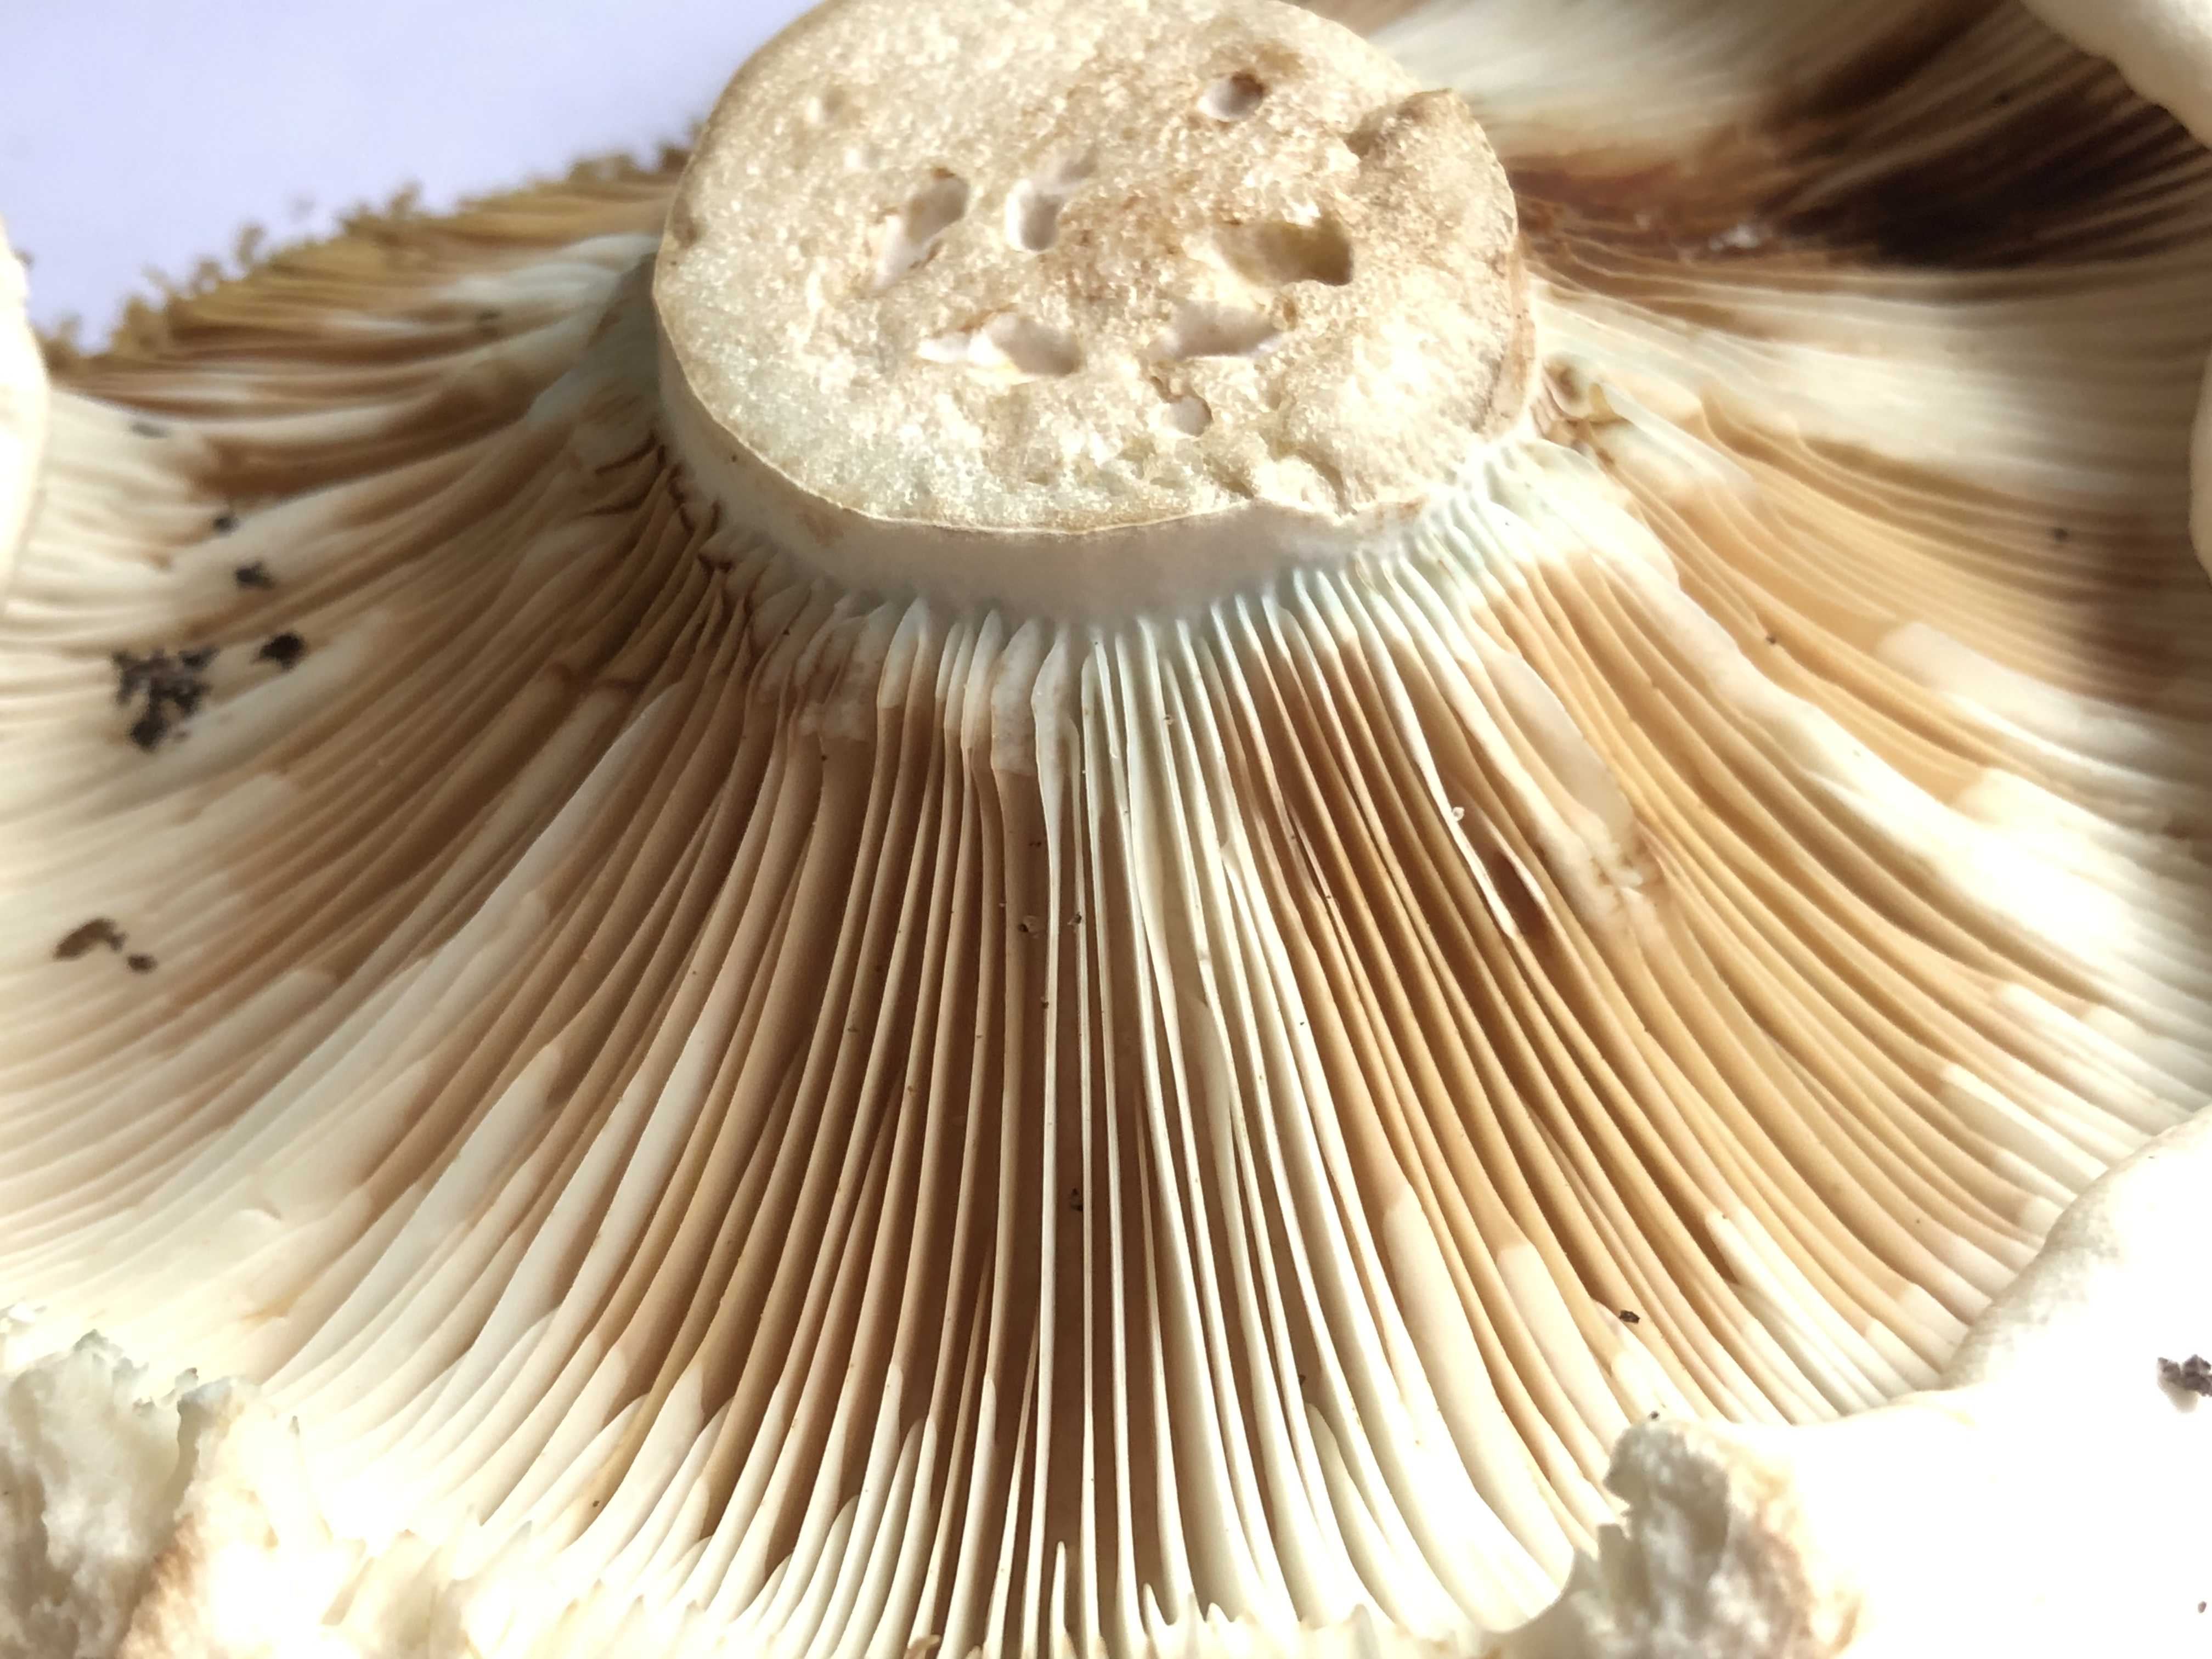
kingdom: Fungi
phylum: Basidiomycota
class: Agaricomycetes
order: Russulales
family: Russulaceae
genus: Russula
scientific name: Russula chloroides
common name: grønhalset tragt-skørhat
